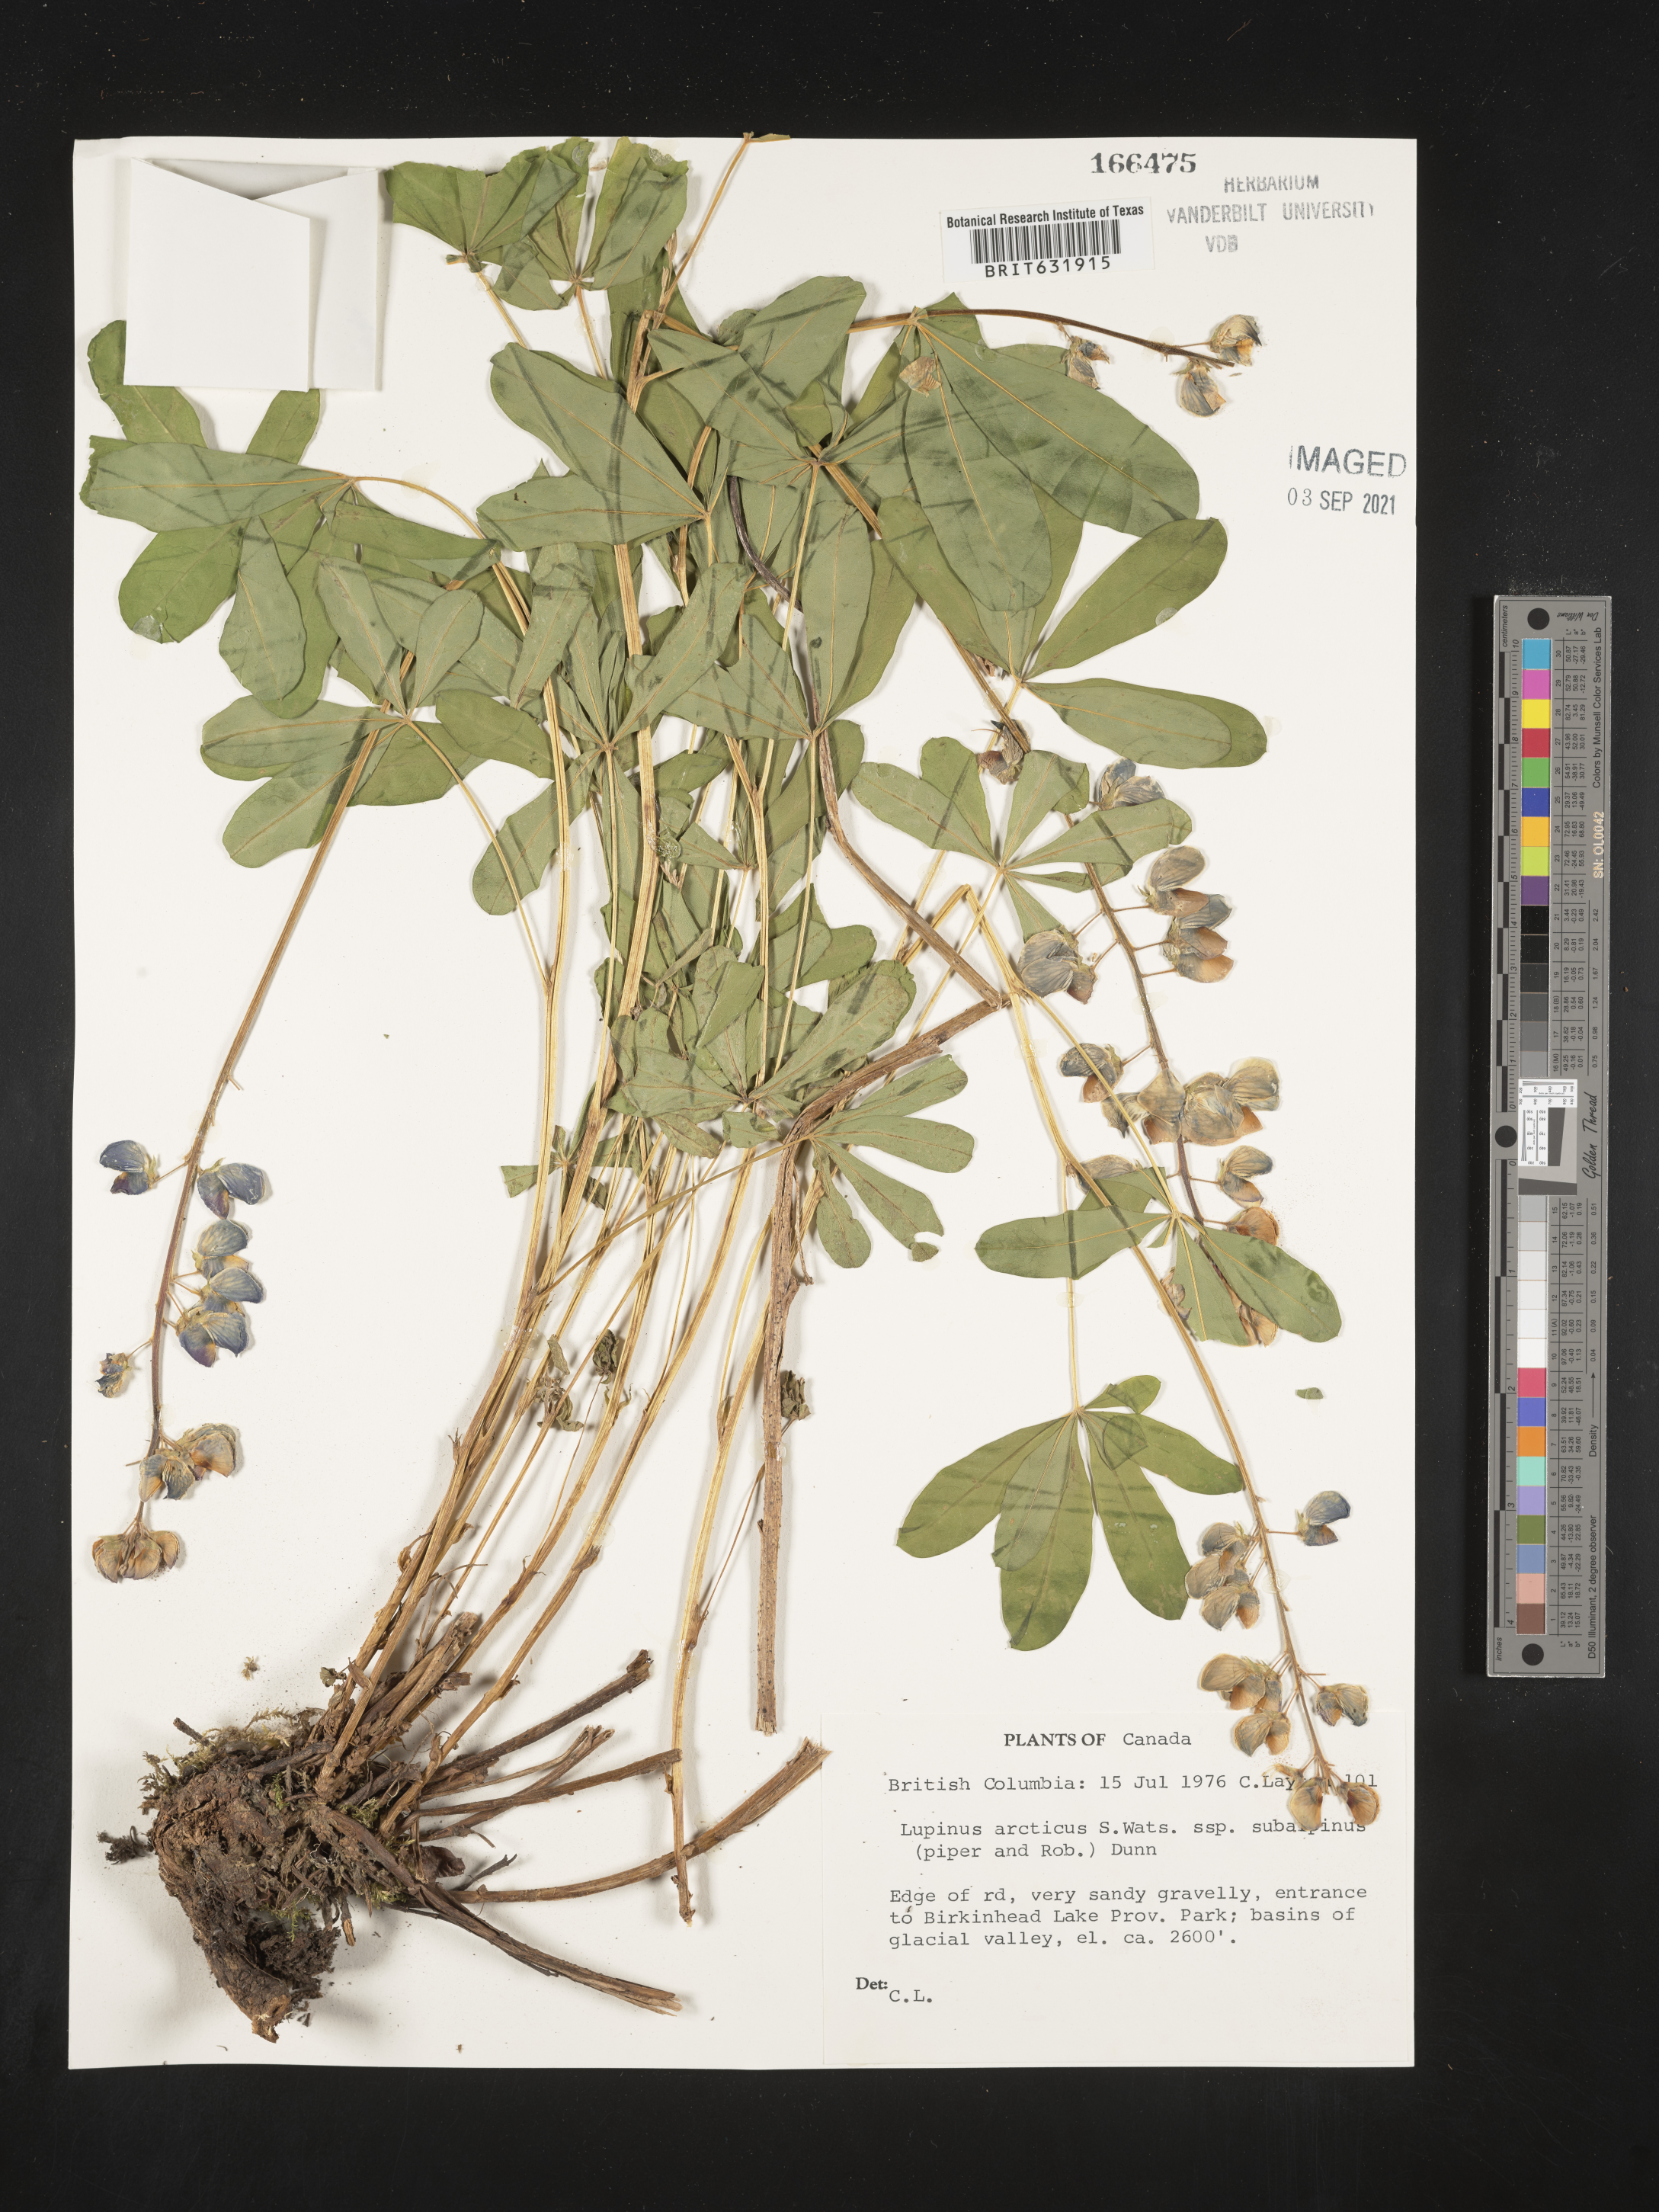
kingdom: Plantae
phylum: Tracheophyta
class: Magnoliopsida
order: Fabales
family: Fabaceae
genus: Lupinus
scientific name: Lupinus
